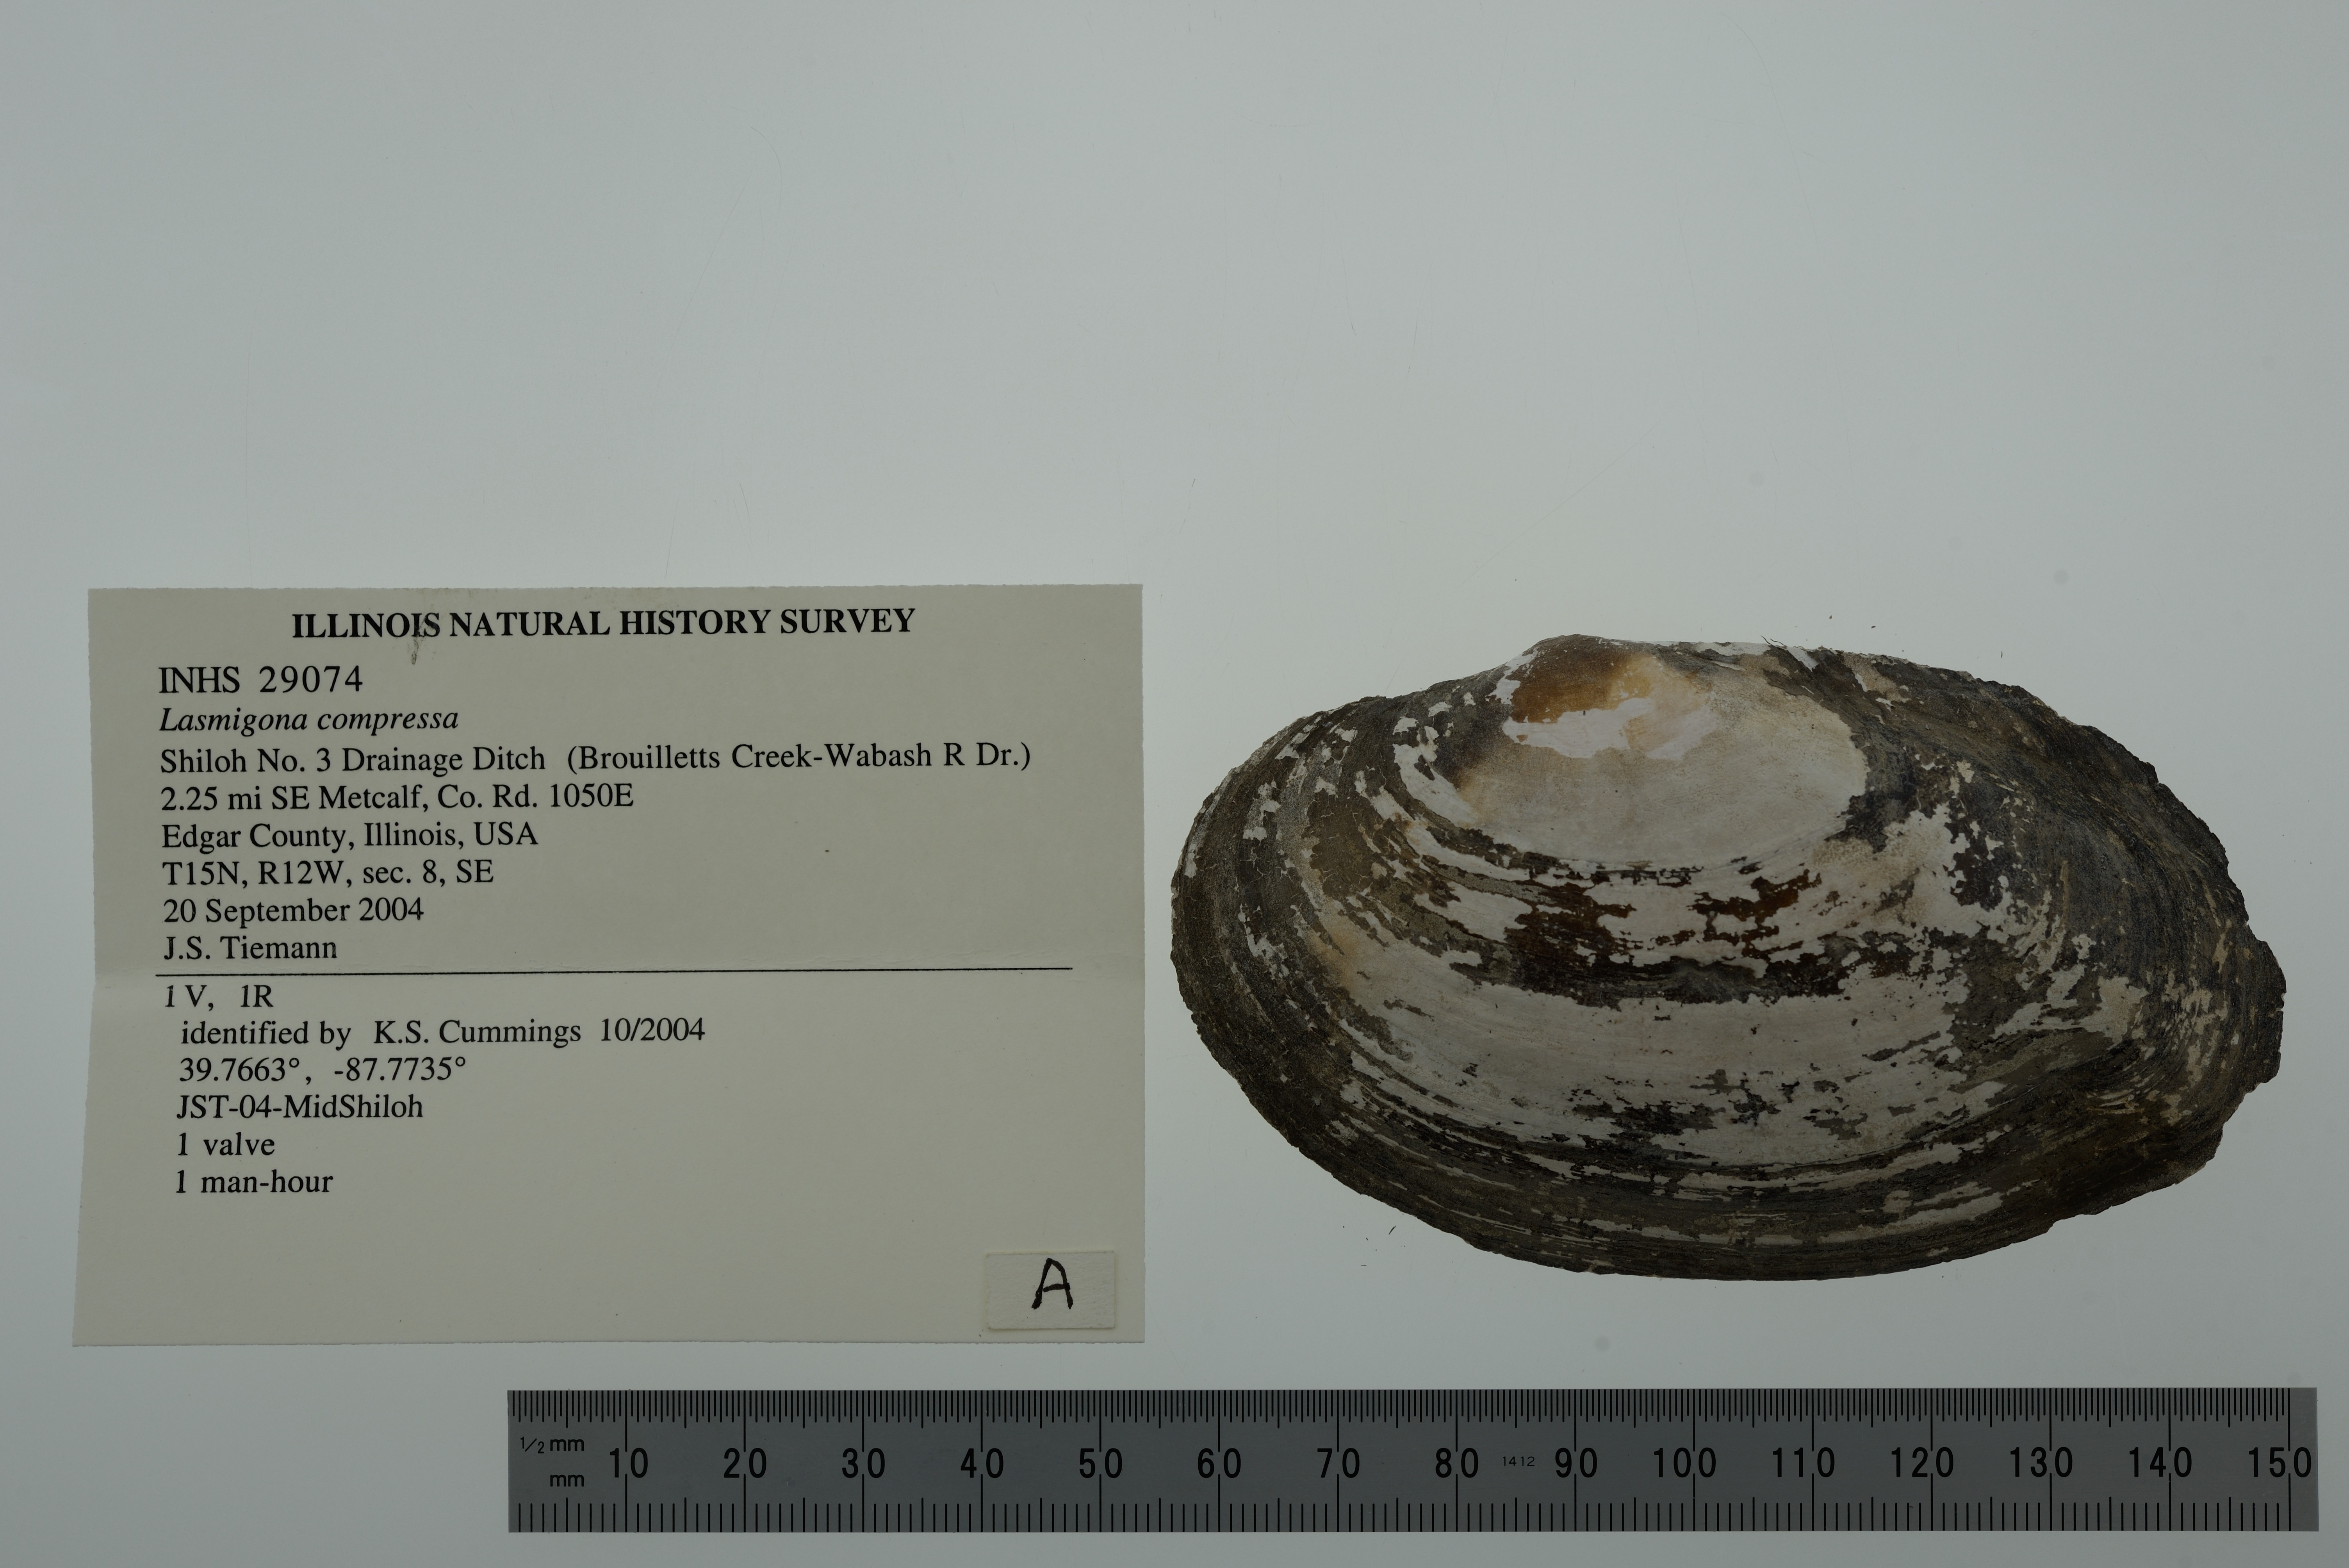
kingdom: Animalia
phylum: Mollusca
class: Bivalvia
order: Unionida
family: Unionidae
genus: Lasmigona
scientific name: Lasmigona compressa
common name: Creek heelsplitter
